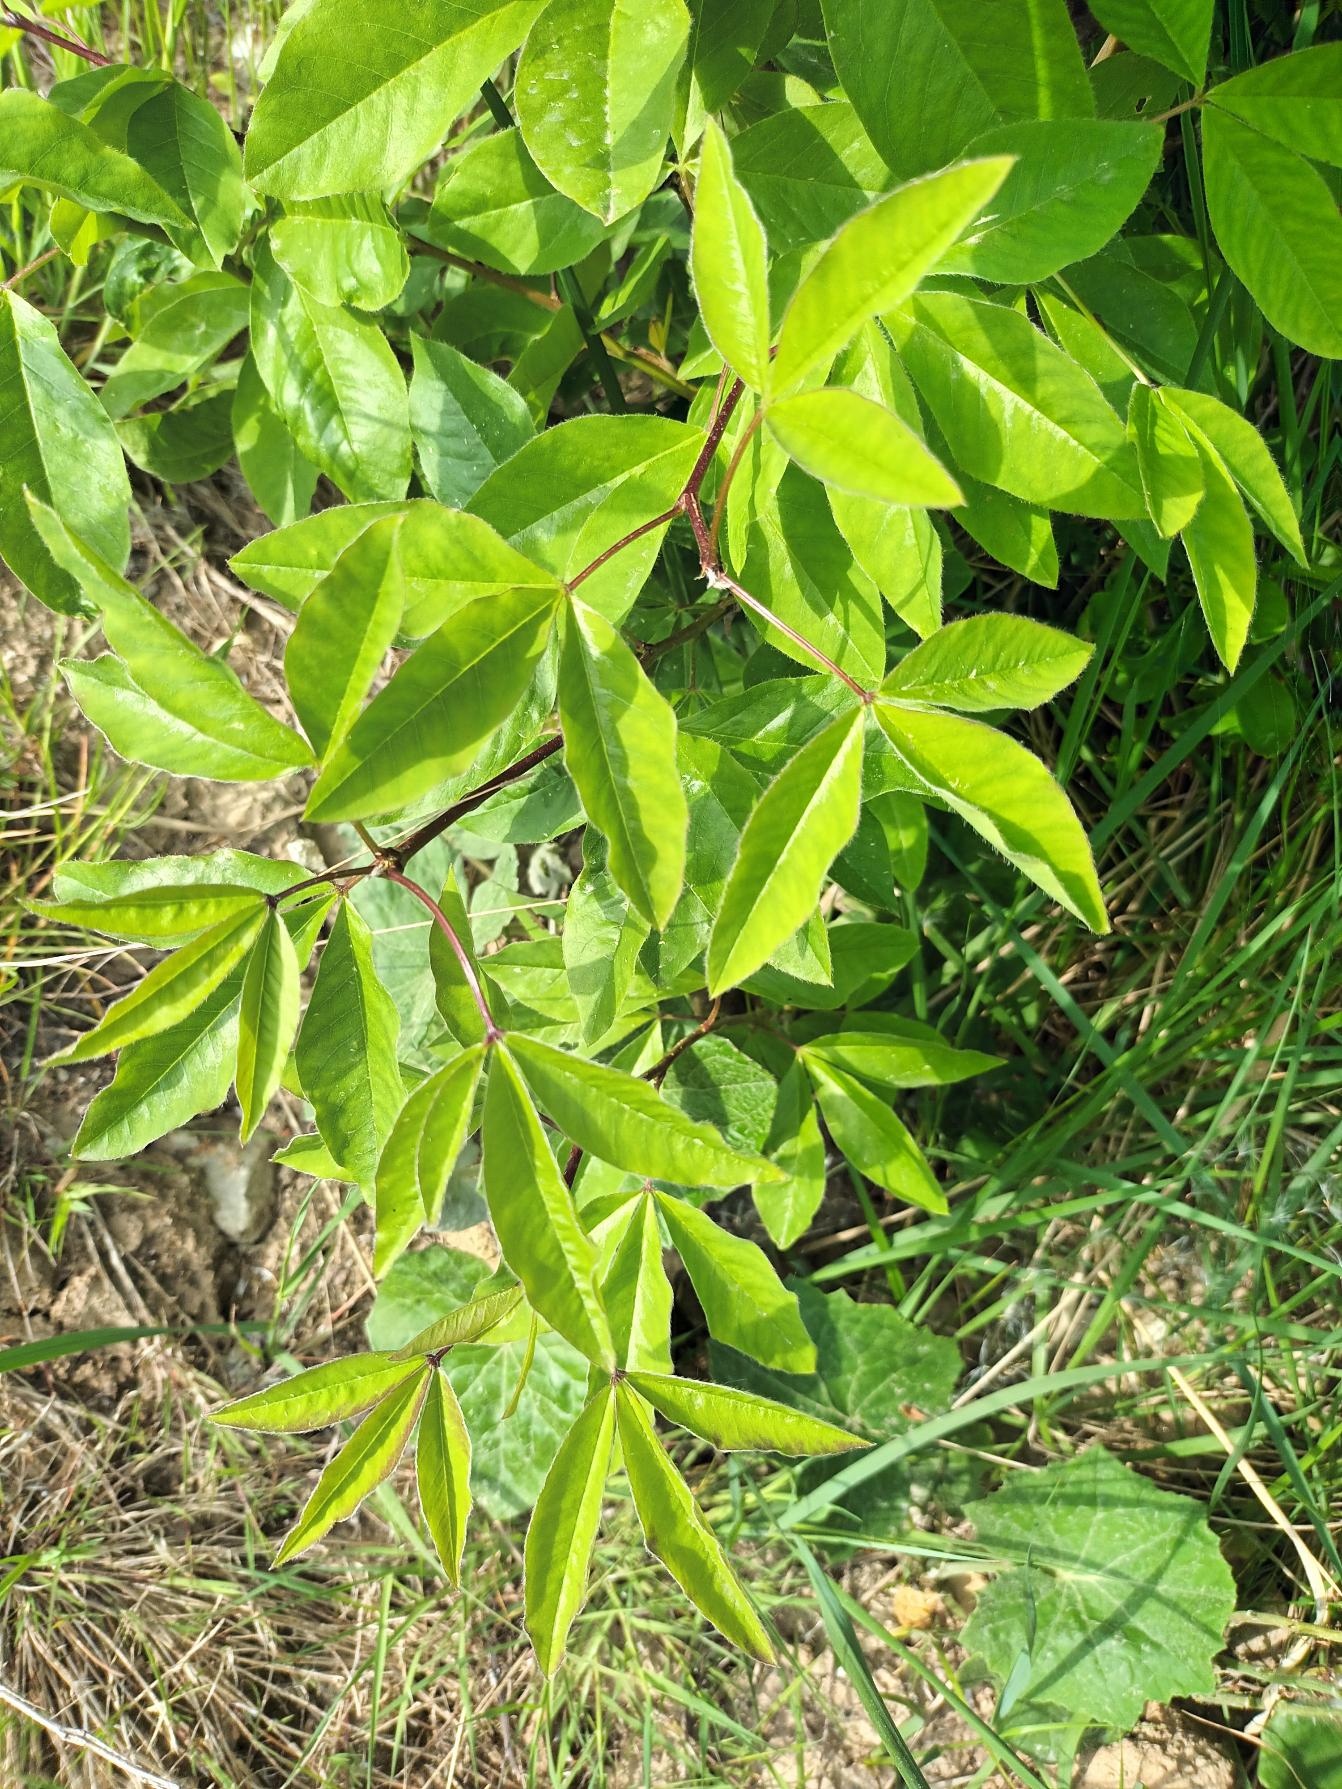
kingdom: Plantae
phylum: Tracheophyta
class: Magnoliopsida
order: Fabales
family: Fabaceae
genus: Laburnum
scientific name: Laburnum alpinum
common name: Alpe-guldregn
